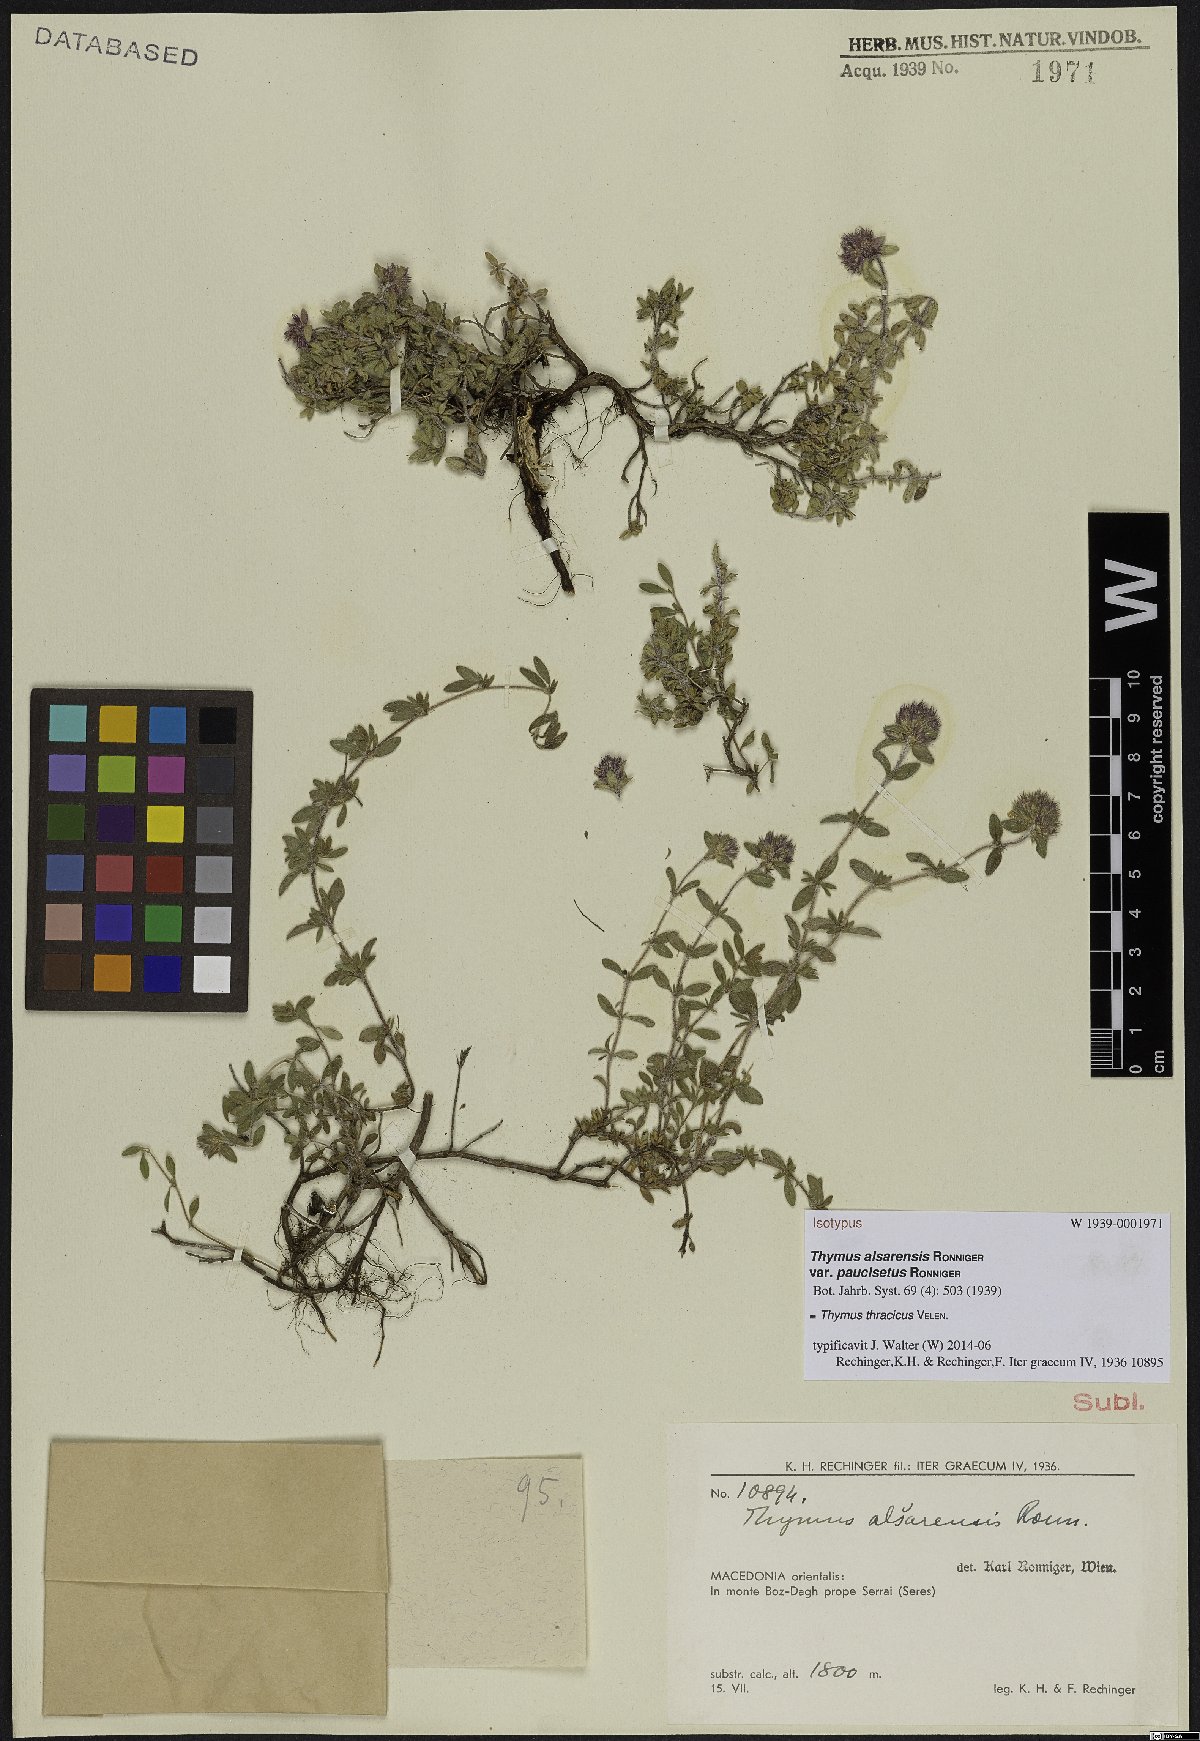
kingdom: Plantae
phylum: Tracheophyta
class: Magnoliopsida
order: Lamiales
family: Lamiaceae
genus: Thymus
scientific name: Thymus thracicus
